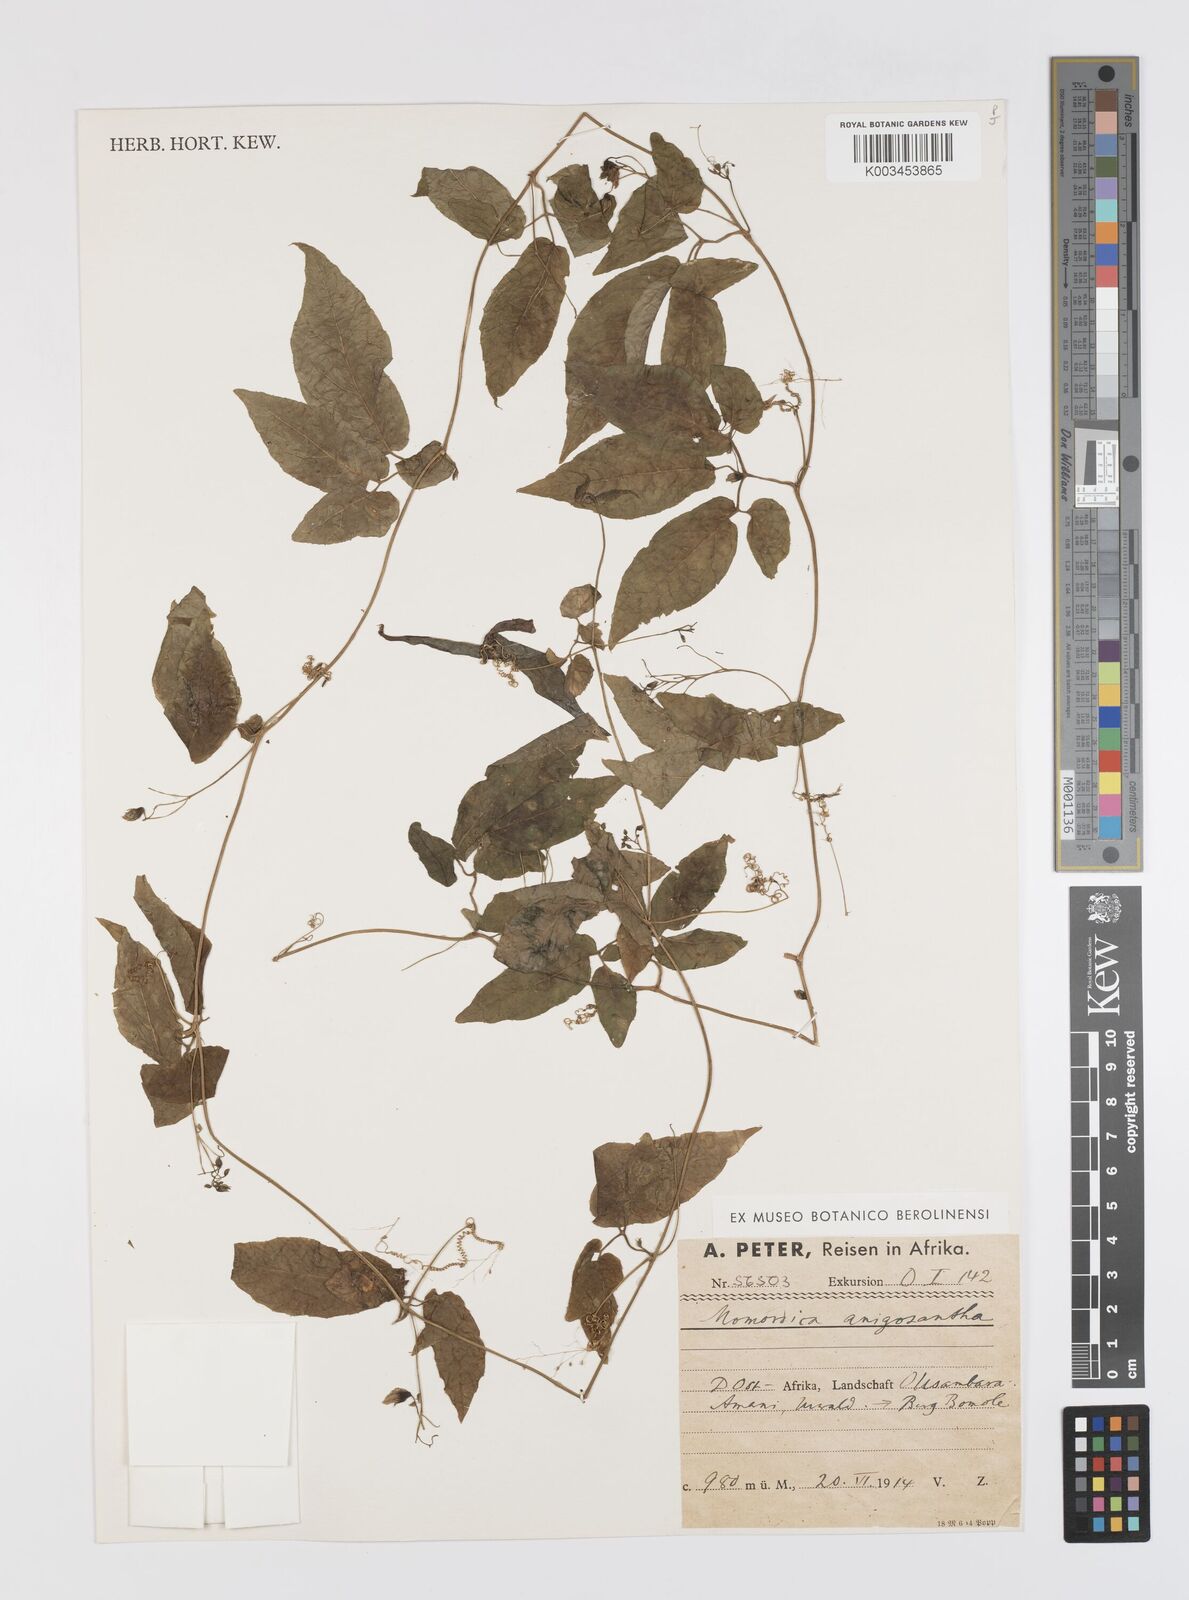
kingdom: Plantae
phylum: Tracheophyta
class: Magnoliopsida
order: Cucurbitales
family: Cucurbitaceae
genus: Momordica
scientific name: Momordica anigosantha
